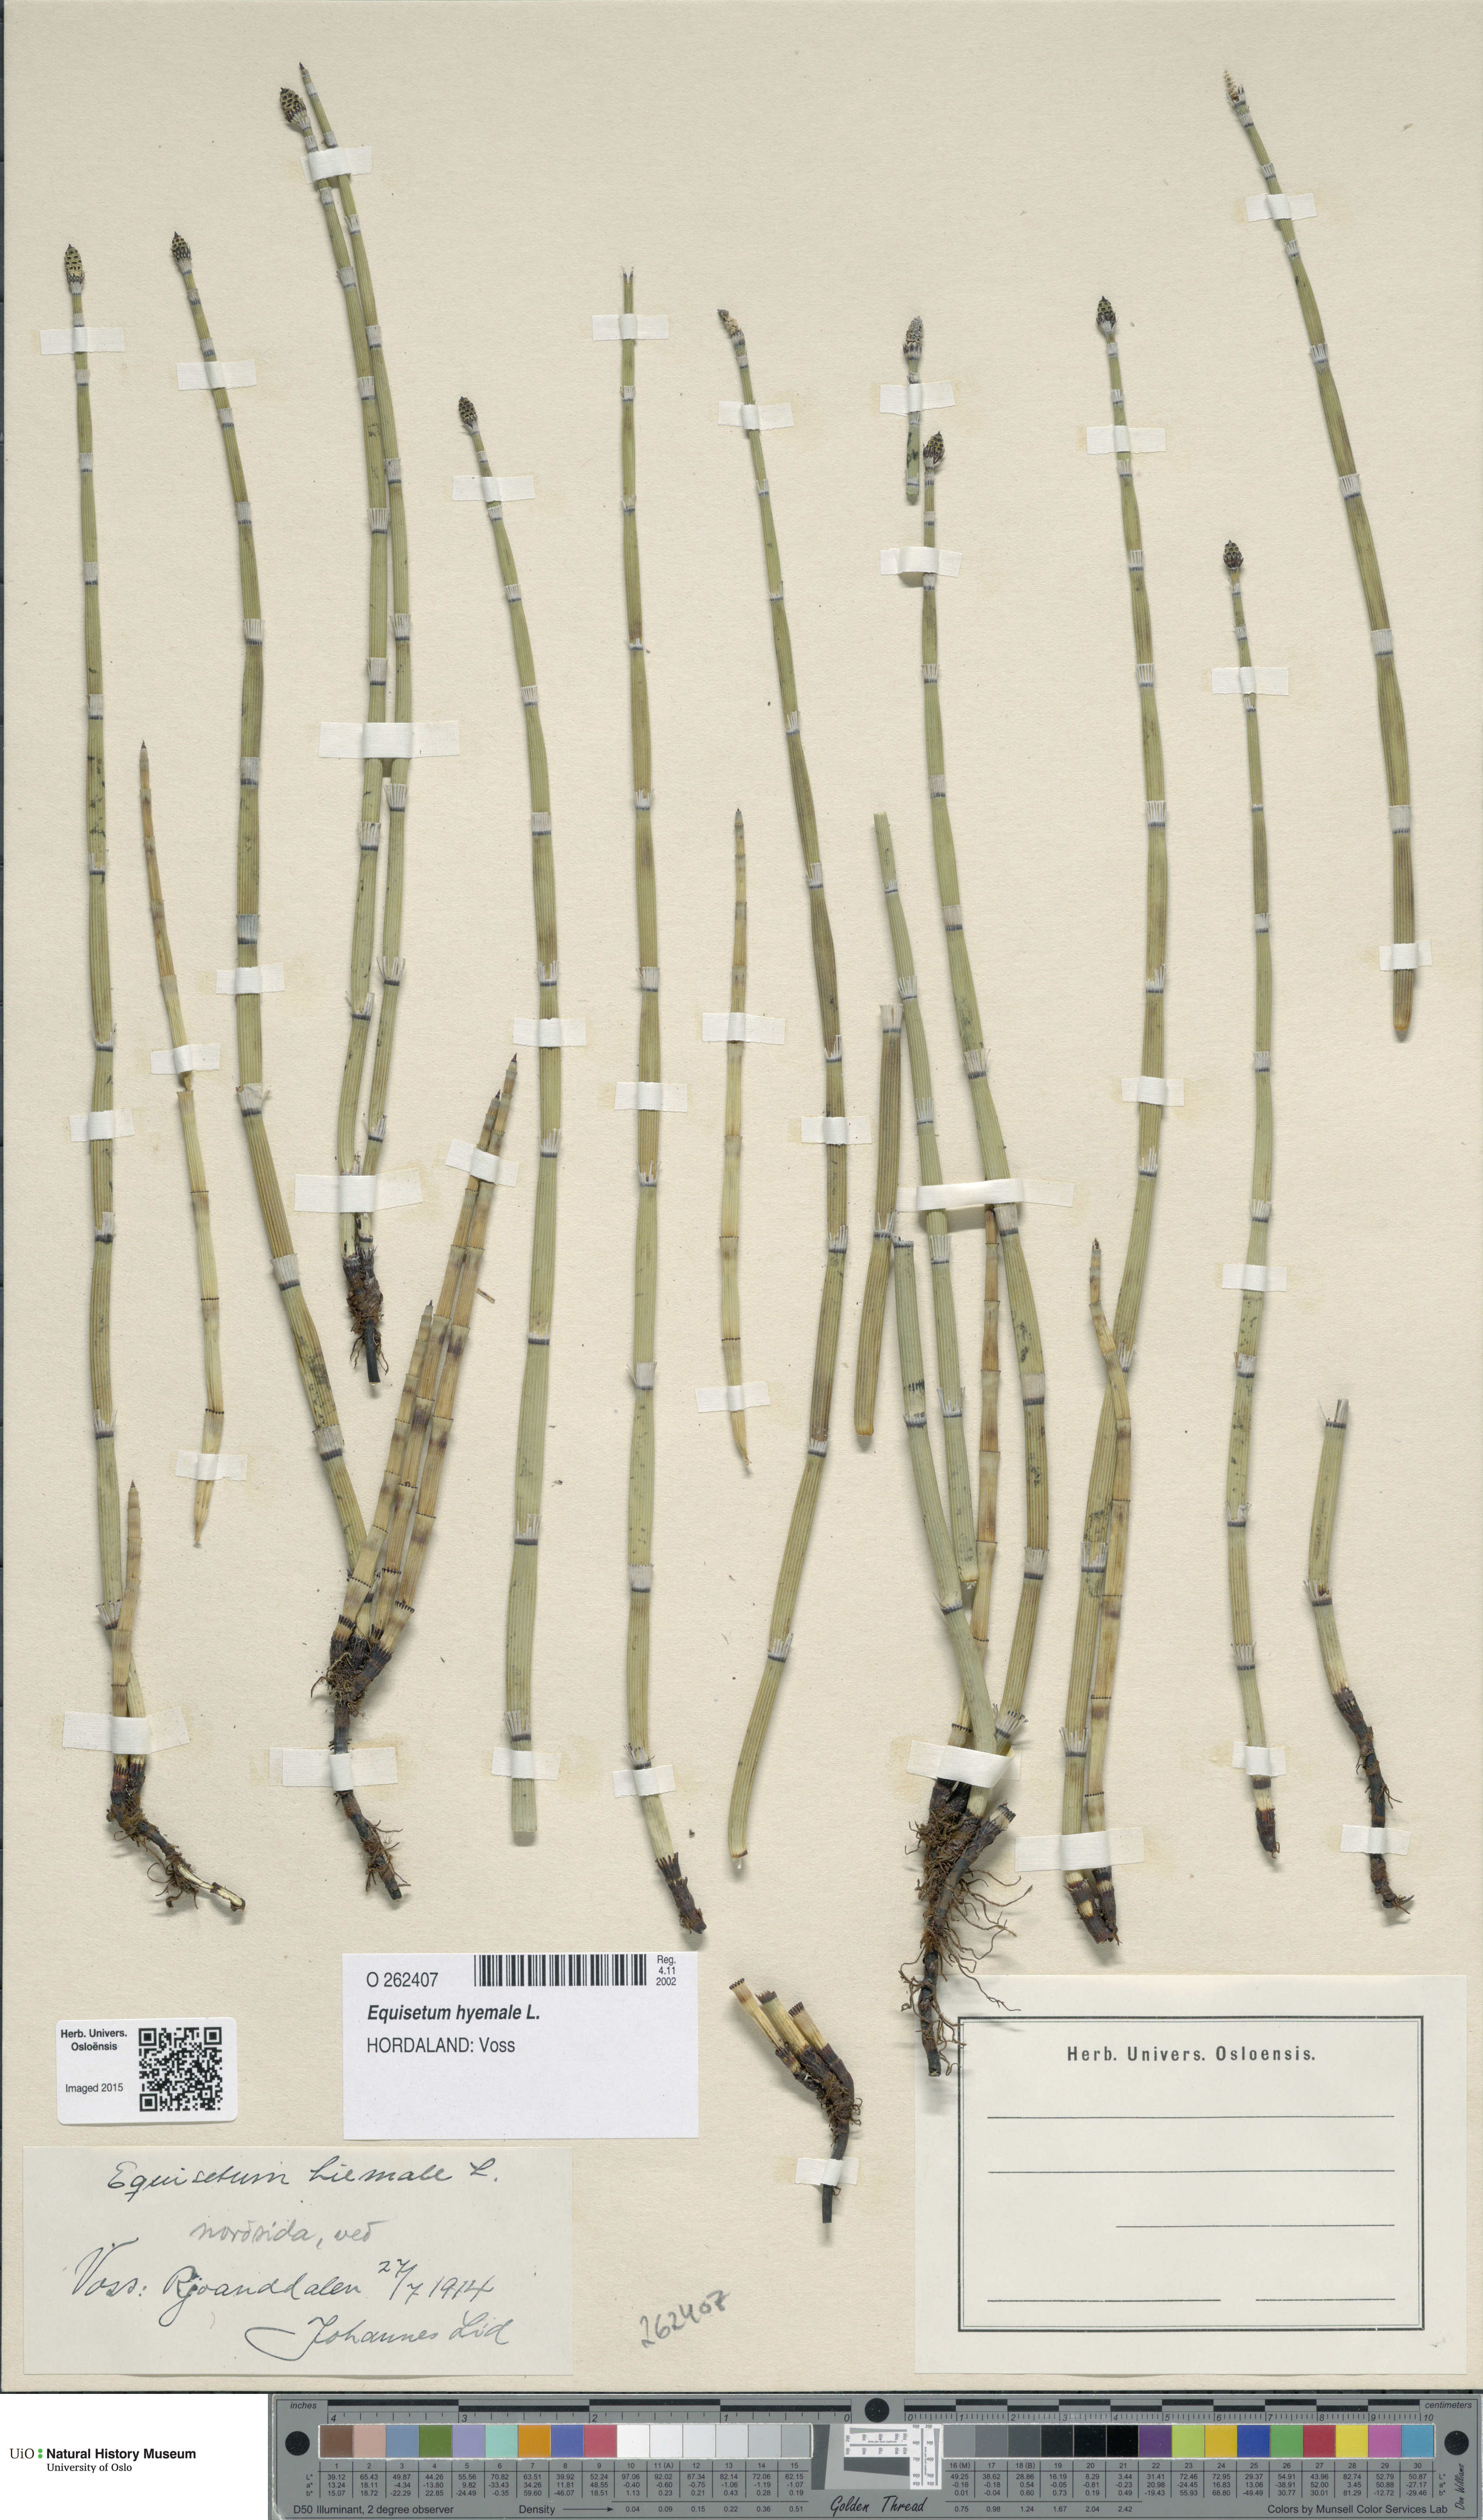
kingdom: Plantae
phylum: Tracheophyta
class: Polypodiopsida
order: Equisetales
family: Equisetaceae
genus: Equisetum
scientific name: Equisetum hyemale
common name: Rough horsetail
